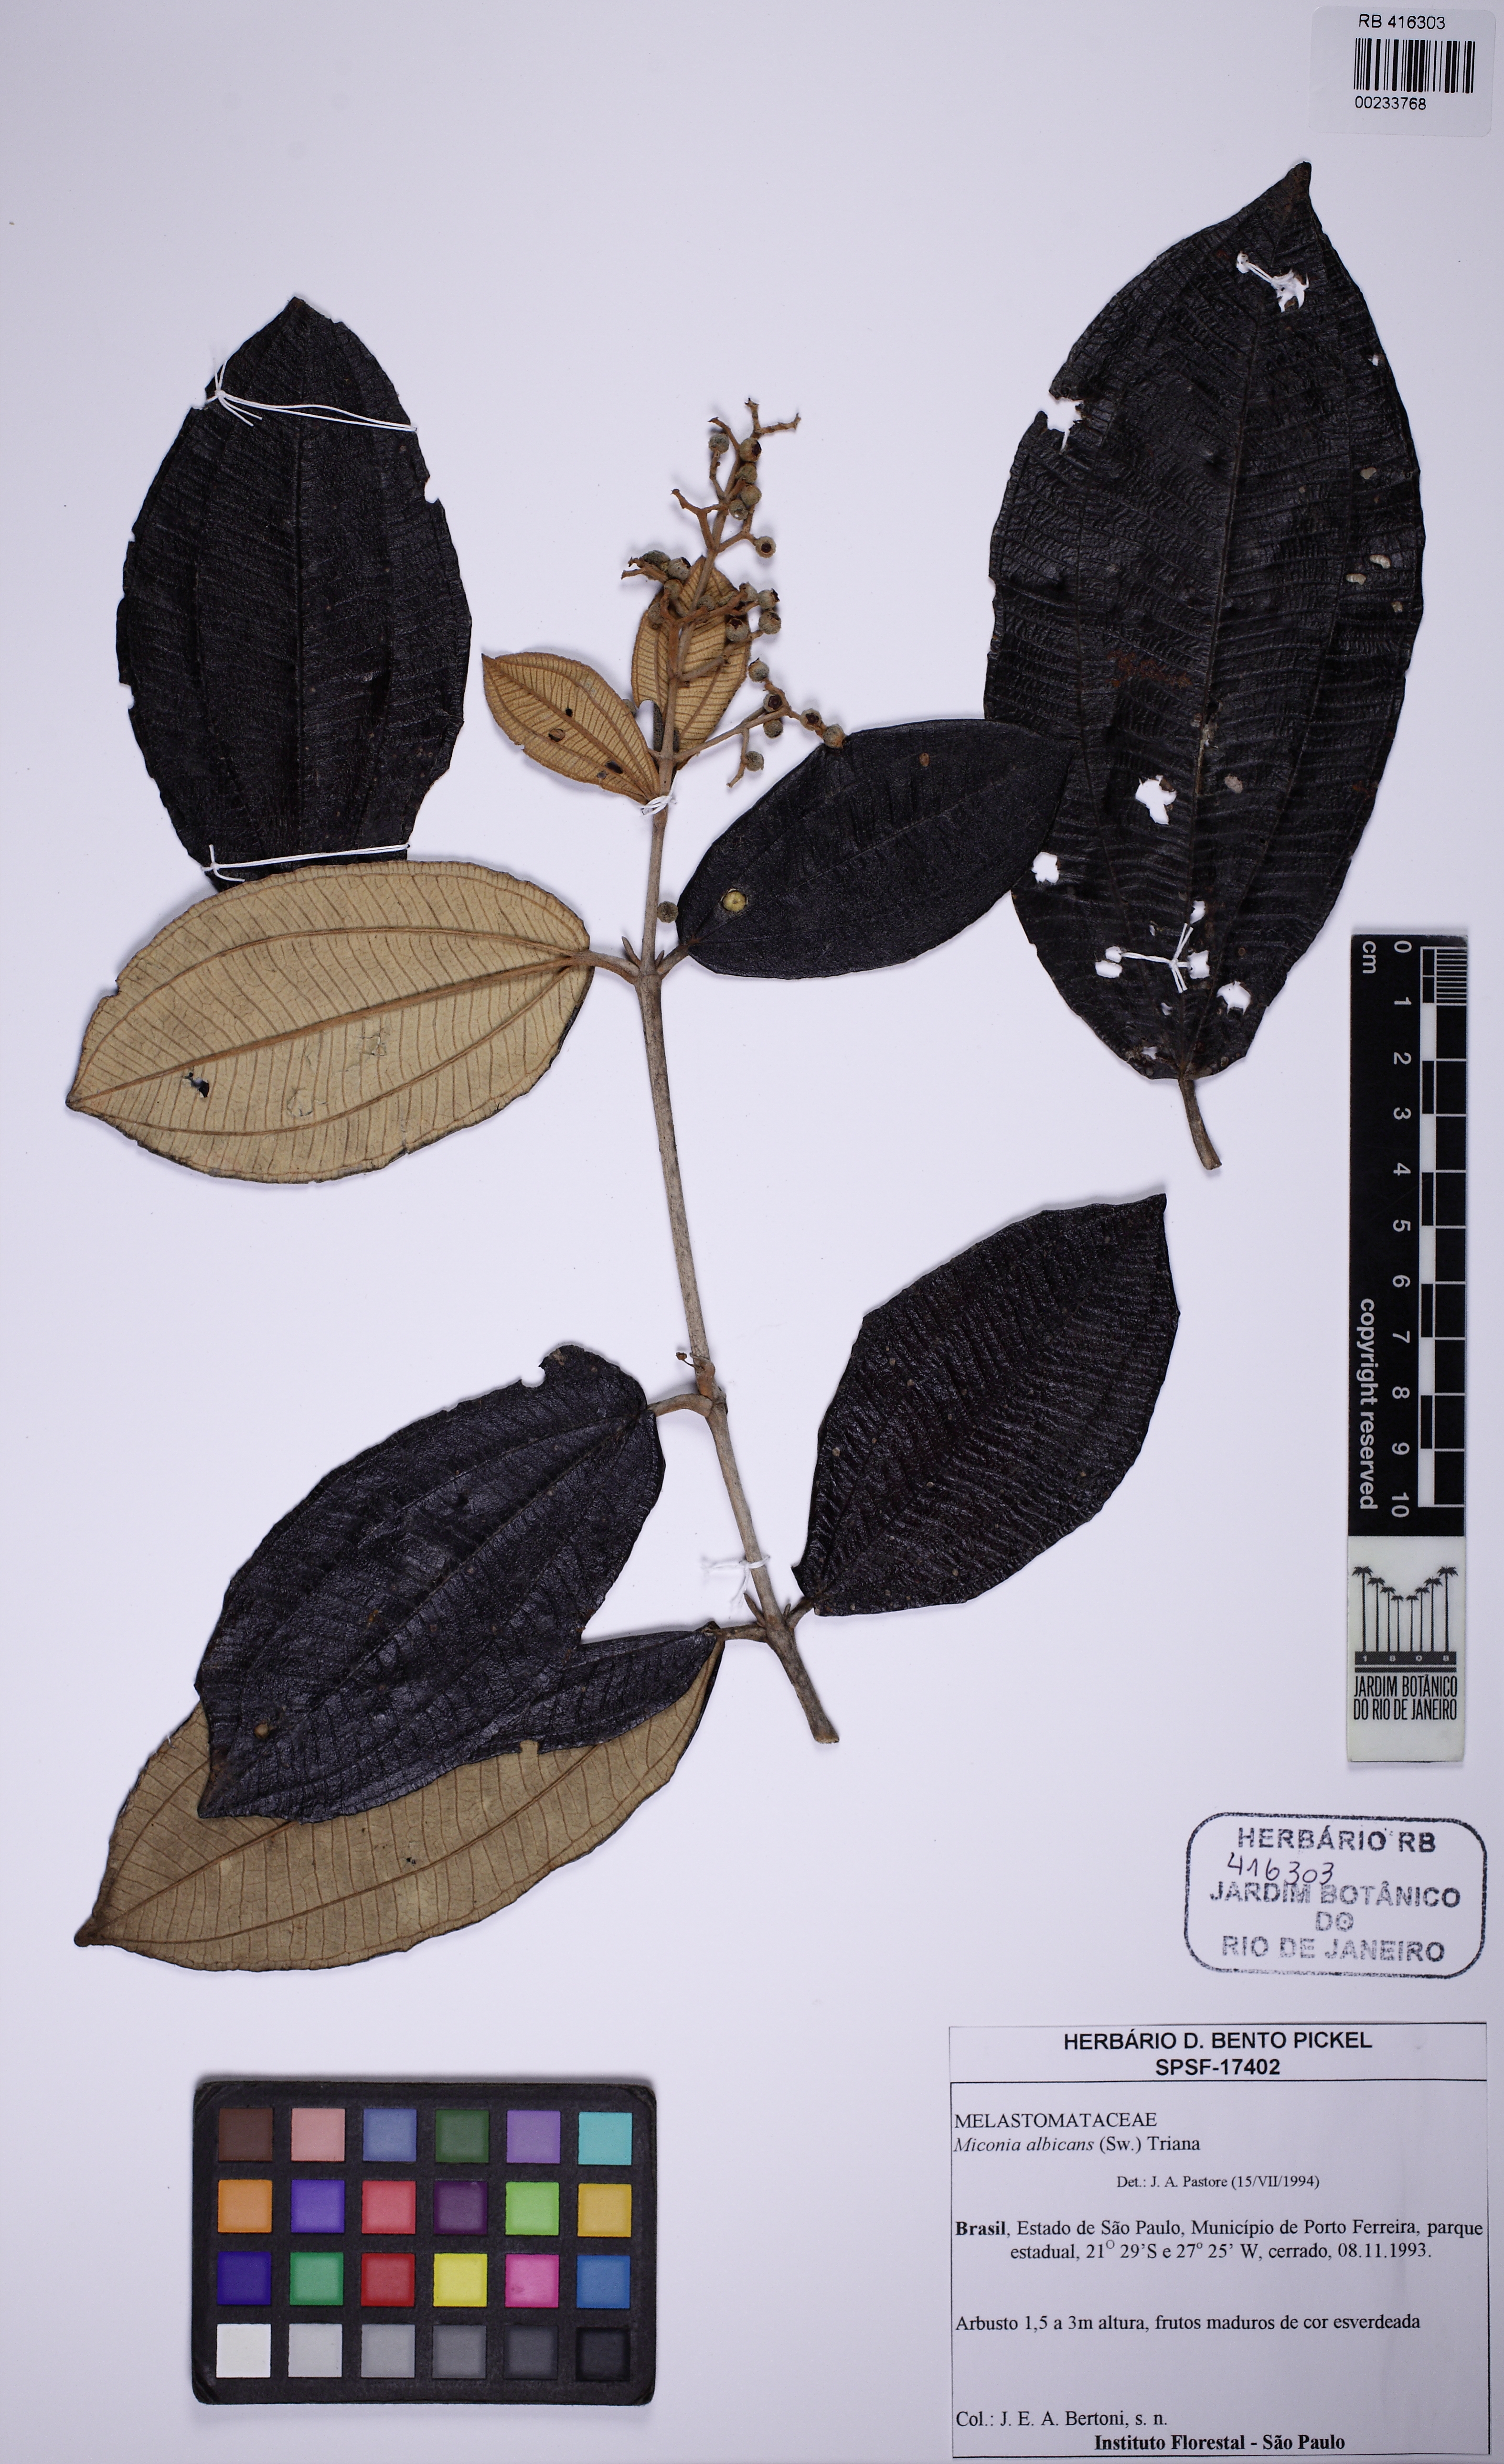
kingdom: Plantae
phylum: Tracheophyta
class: Magnoliopsida
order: Myrtales
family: Melastomataceae
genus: Miconia
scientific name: Miconia albicans
